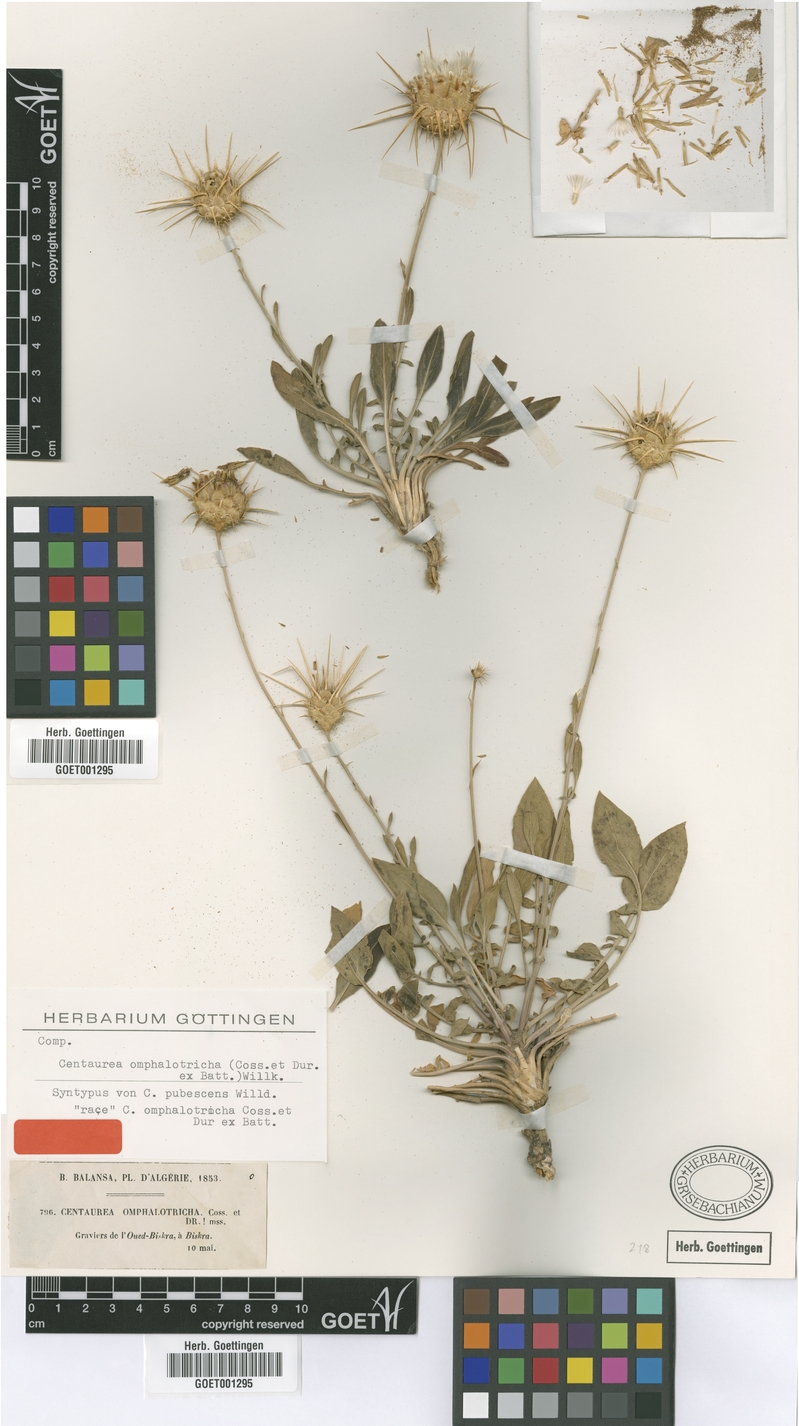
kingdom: Plantae
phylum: Tracheophyta
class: Magnoliopsida
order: Asterales
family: Asteraceae
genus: Centaurea
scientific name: Centaurea pubescens
